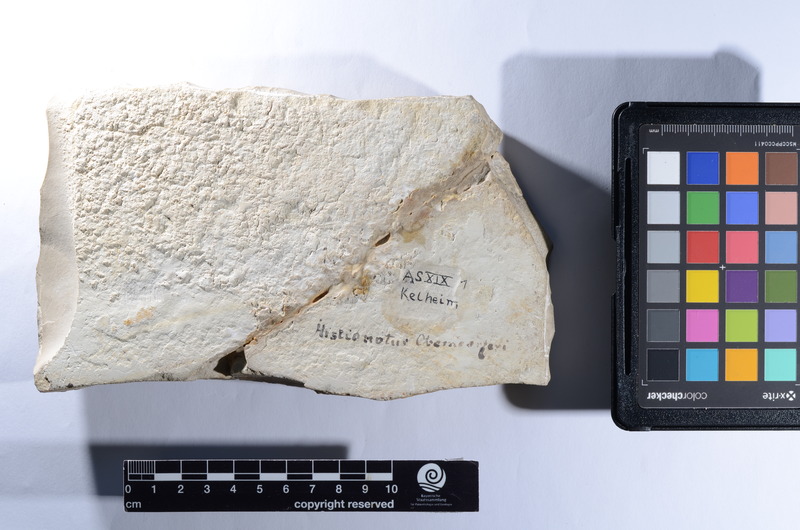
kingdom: Animalia
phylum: Chordata
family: Macrosemiidae
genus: Histionotus
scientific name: Histionotus oberndorferi
